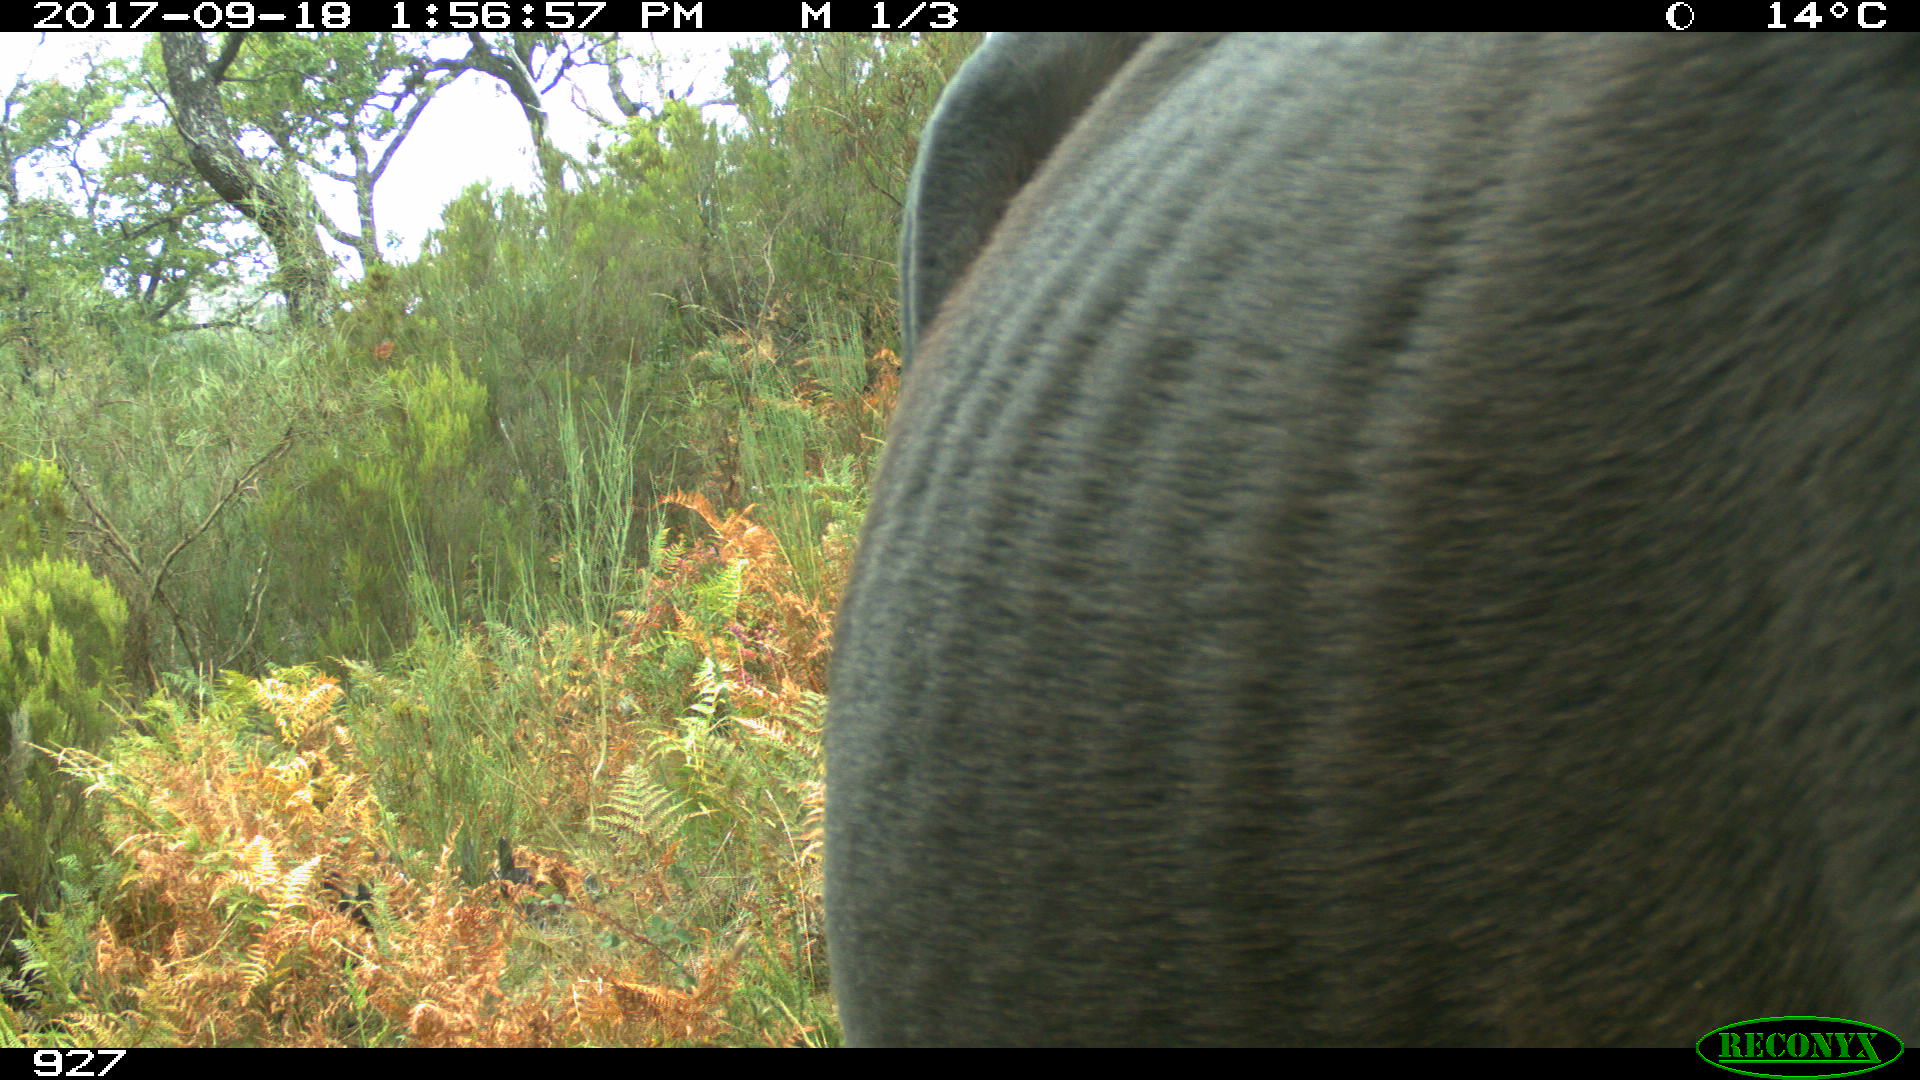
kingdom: Animalia
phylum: Chordata
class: Mammalia
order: Perissodactyla
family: Equidae
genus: Equus
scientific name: Equus caballus
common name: Horse
